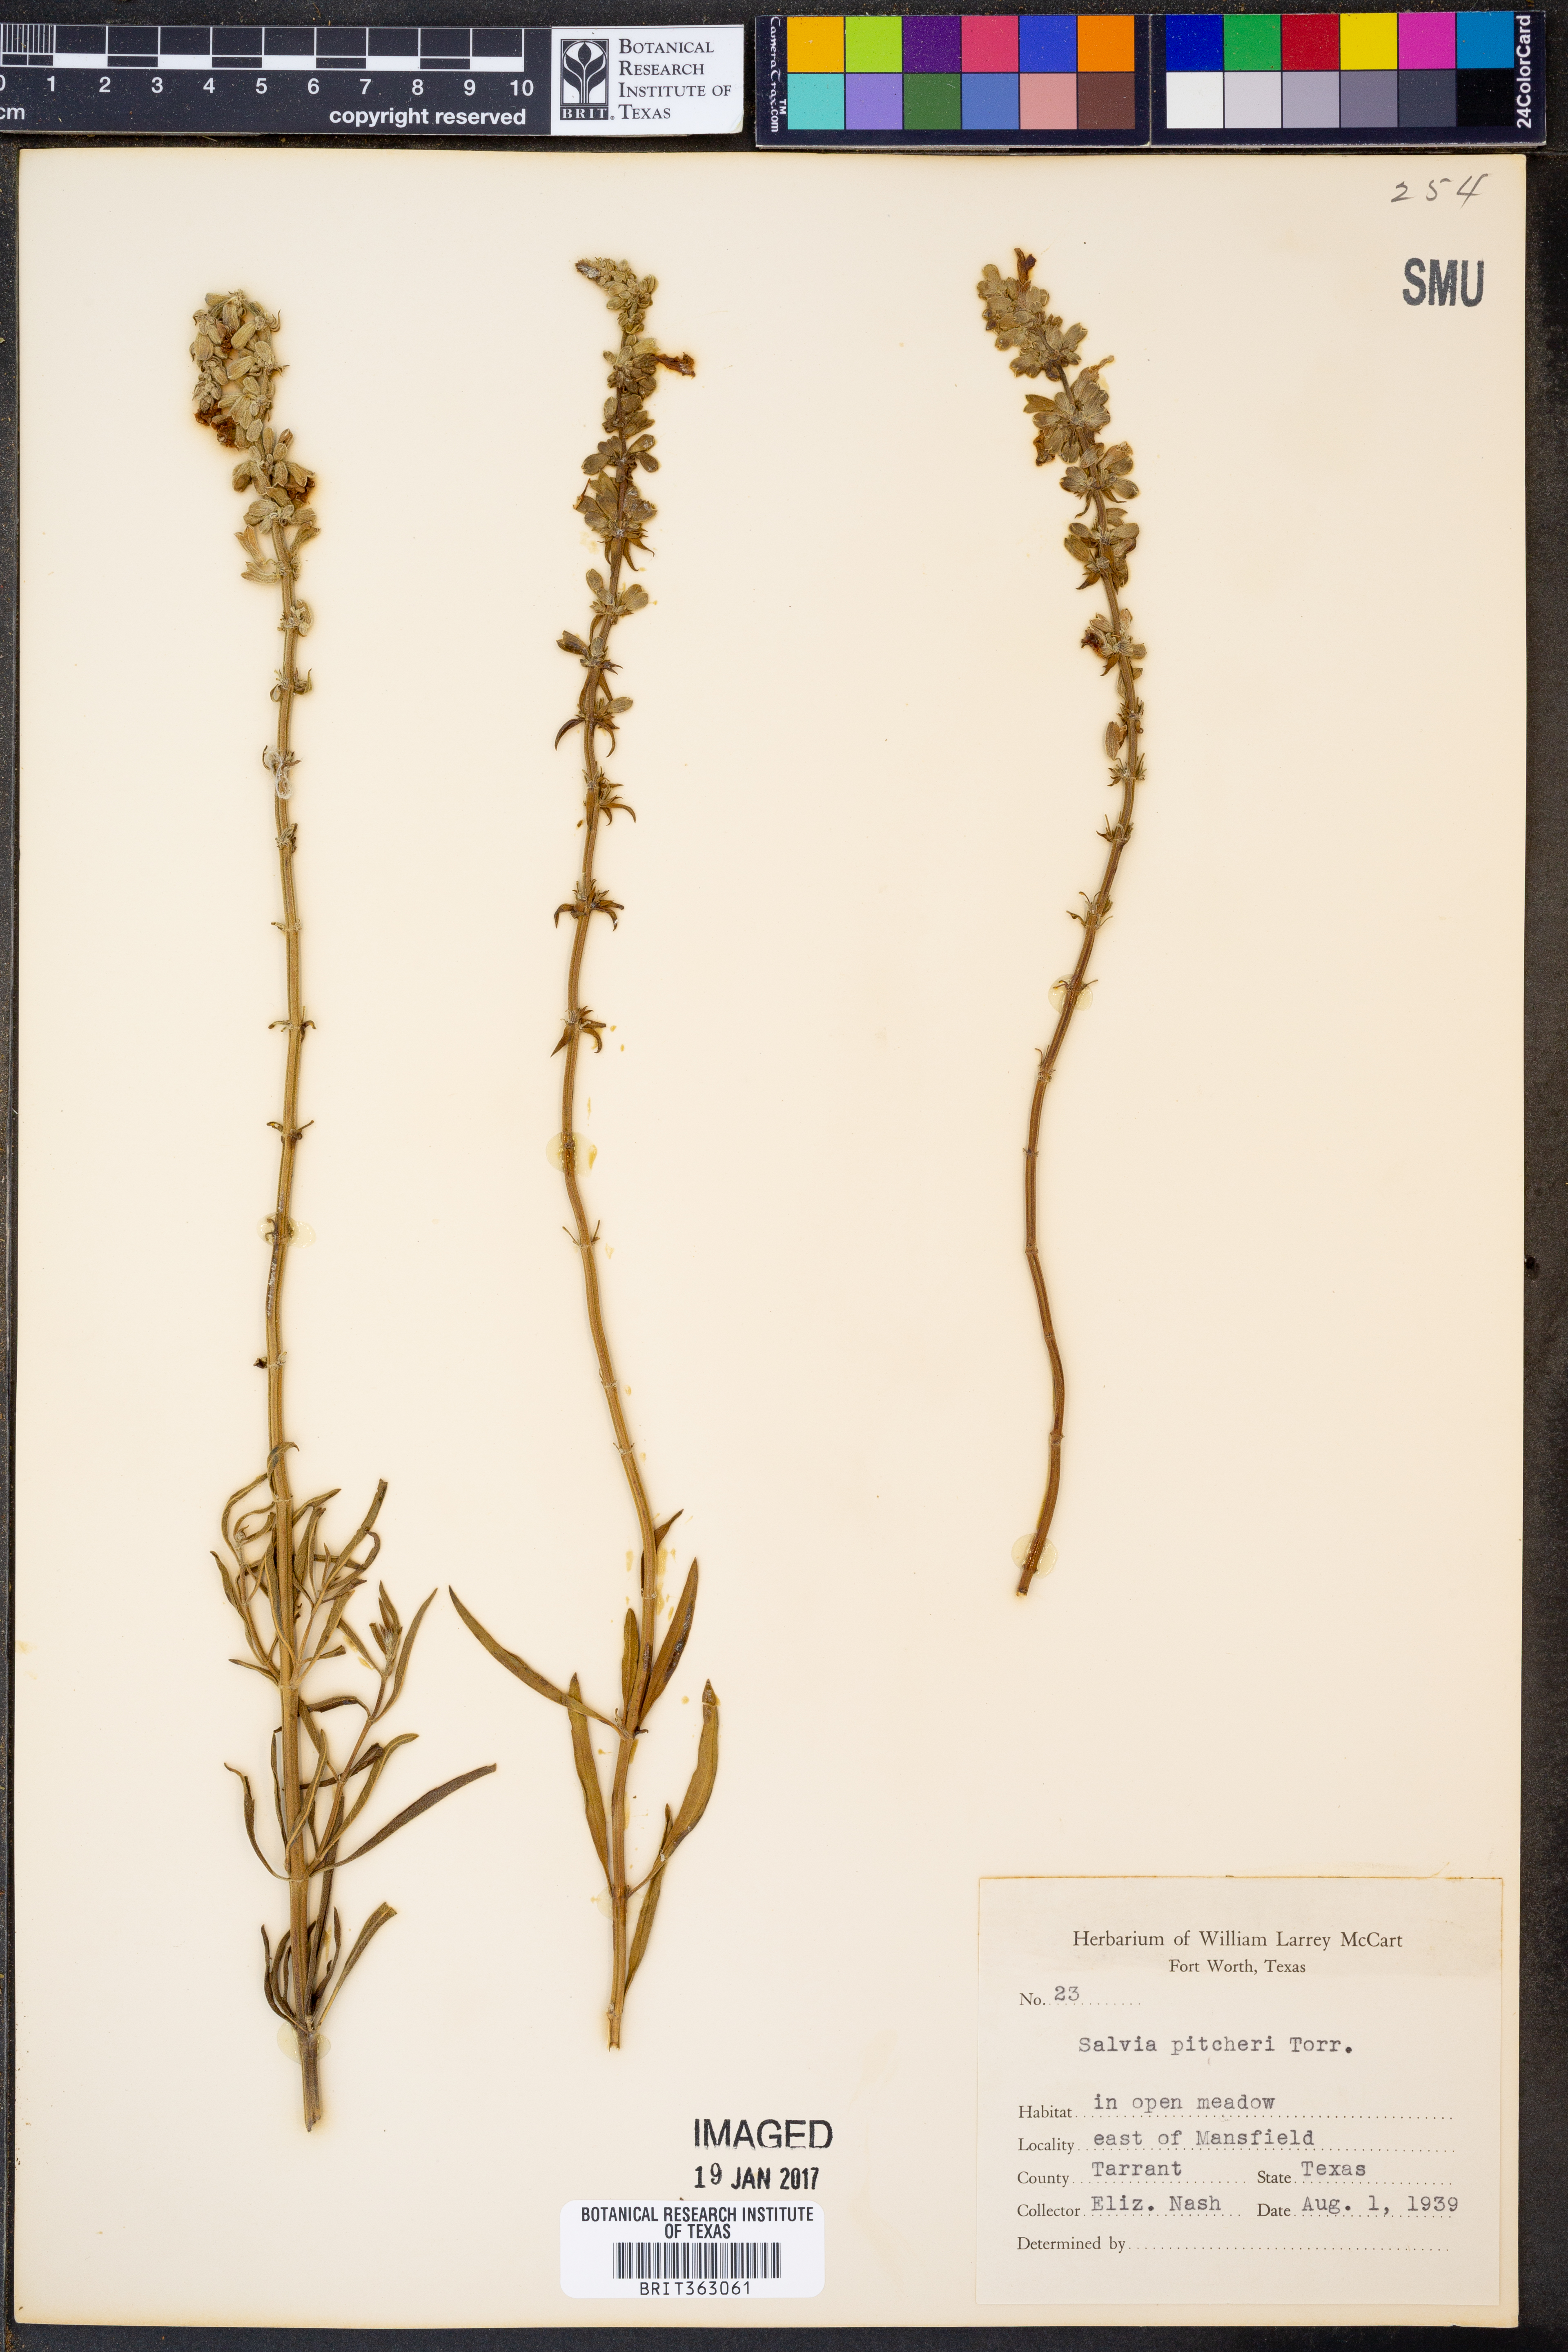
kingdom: Plantae
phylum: Tracheophyta
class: Magnoliopsida
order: Lamiales
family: Lamiaceae
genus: Salvia
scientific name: Salvia azurea
